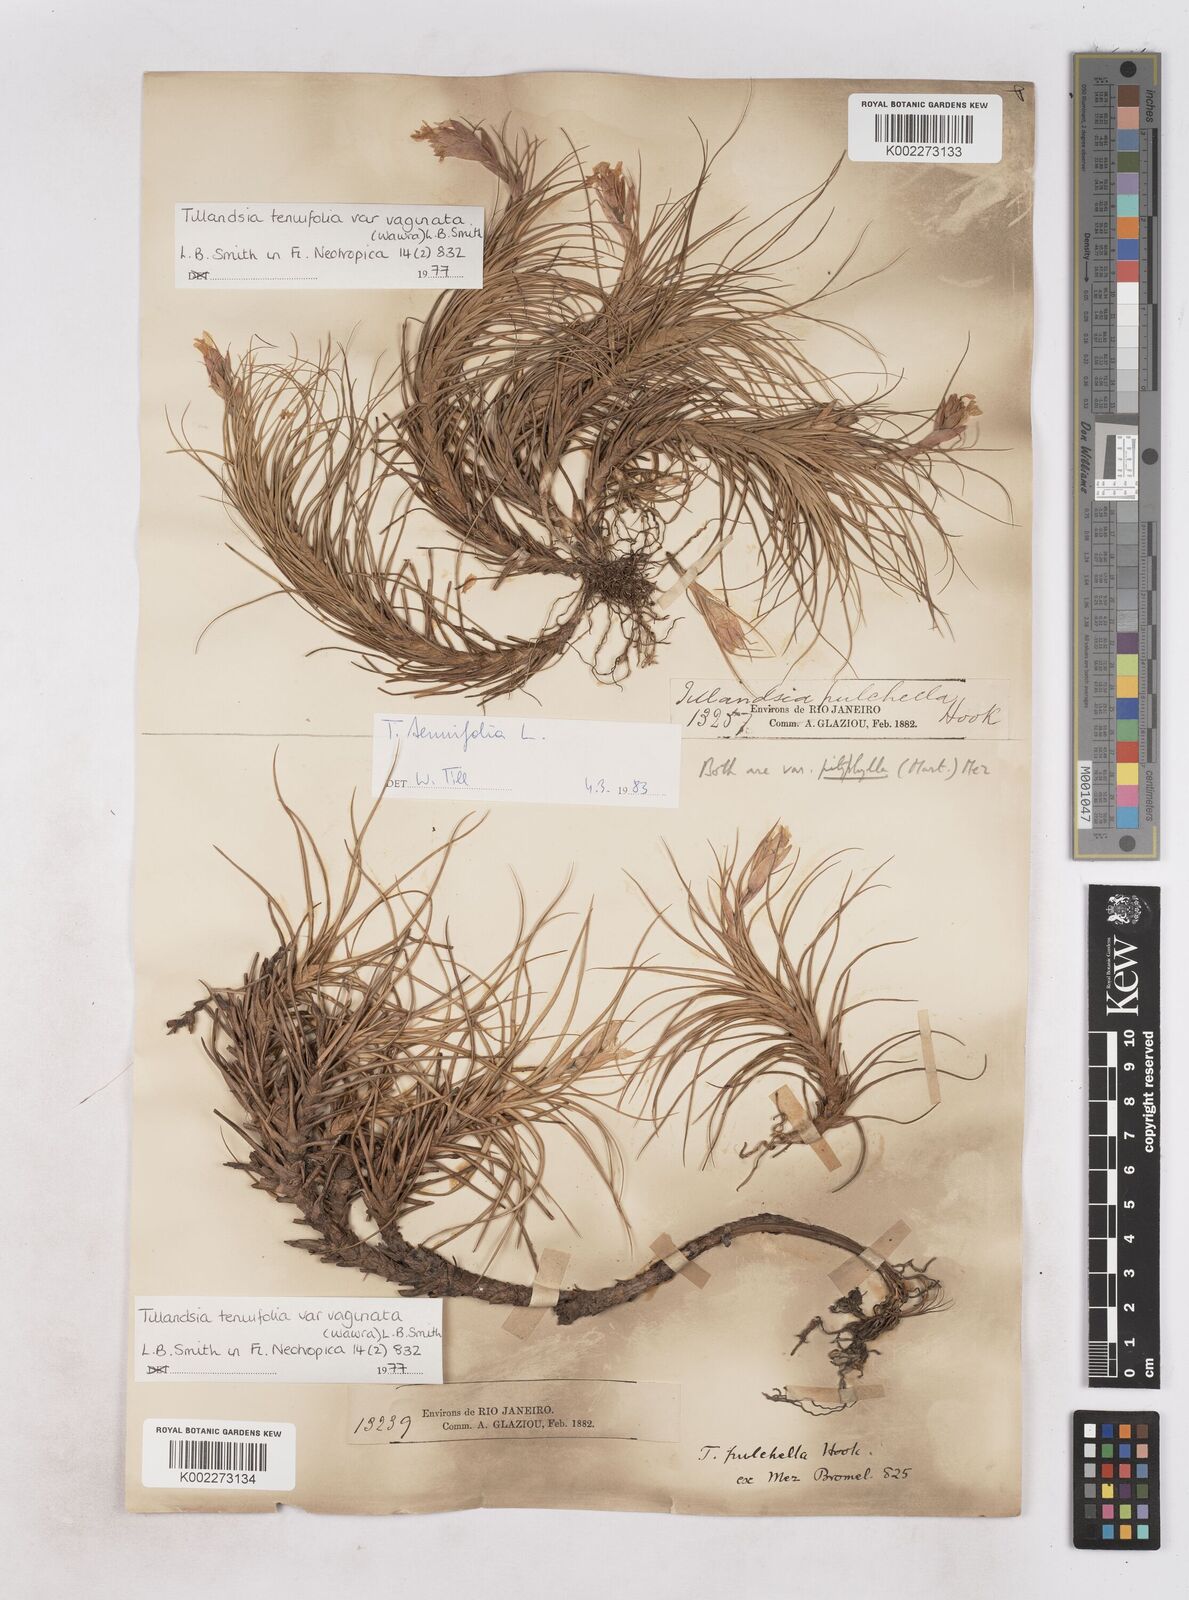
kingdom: Plantae
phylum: Tracheophyta
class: Liliopsida
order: Poales
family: Bromeliaceae
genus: Tillandsia
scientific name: Tillandsia tenuifolia
